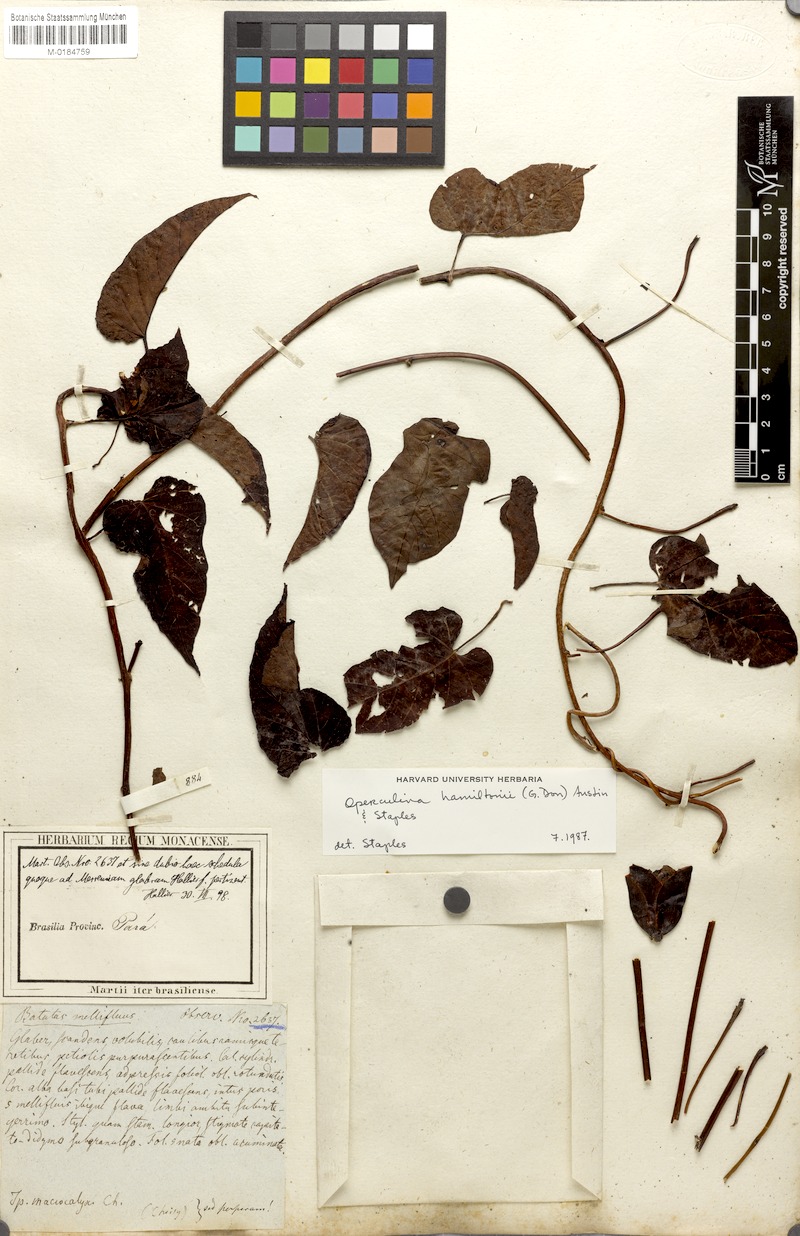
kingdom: Plantae
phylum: Tracheophyta
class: Magnoliopsida
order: Solanales
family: Convolvulaceae
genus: Operculina
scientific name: Operculina hamiltonii
